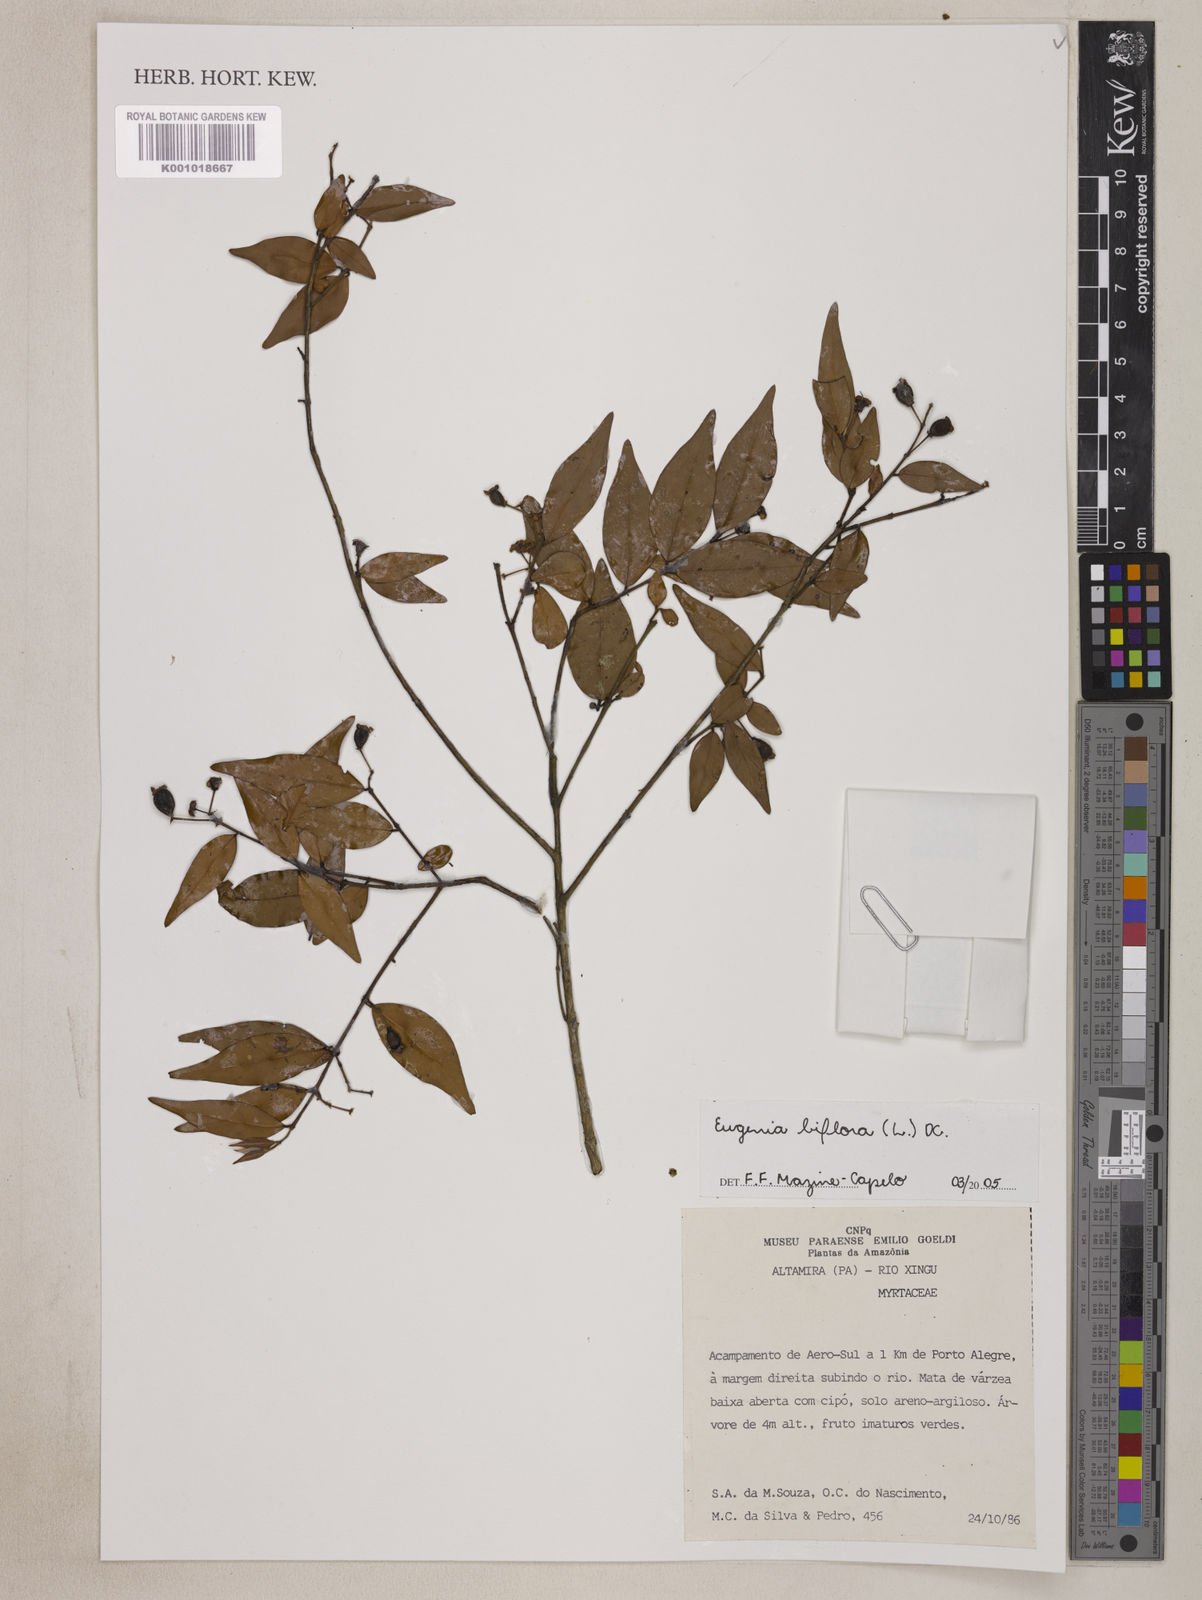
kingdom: Plantae
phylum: Tracheophyta
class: Magnoliopsida
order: Myrtales
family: Myrtaceae
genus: Eugenia
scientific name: Eugenia biflora
